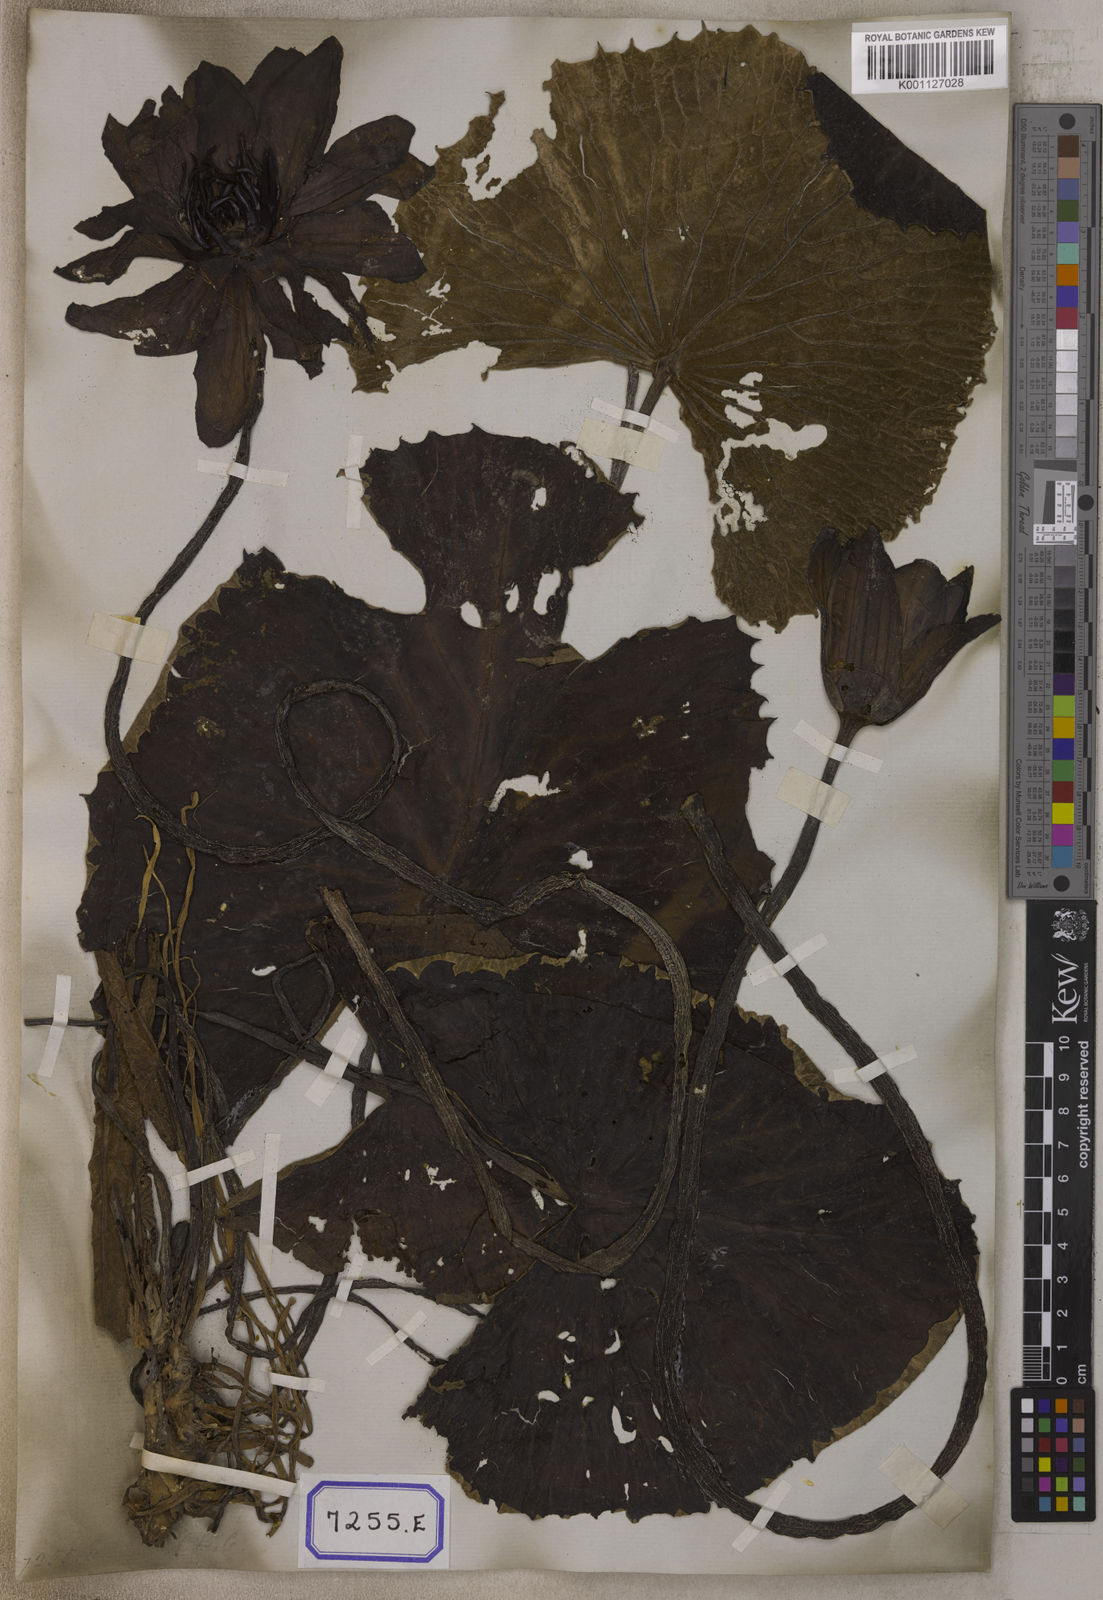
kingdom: Plantae
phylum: Tracheophyta
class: Magnoliopsida
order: Nymphaeales
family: Nymphaeaceae
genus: Nymphaea
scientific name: Nymphaea
